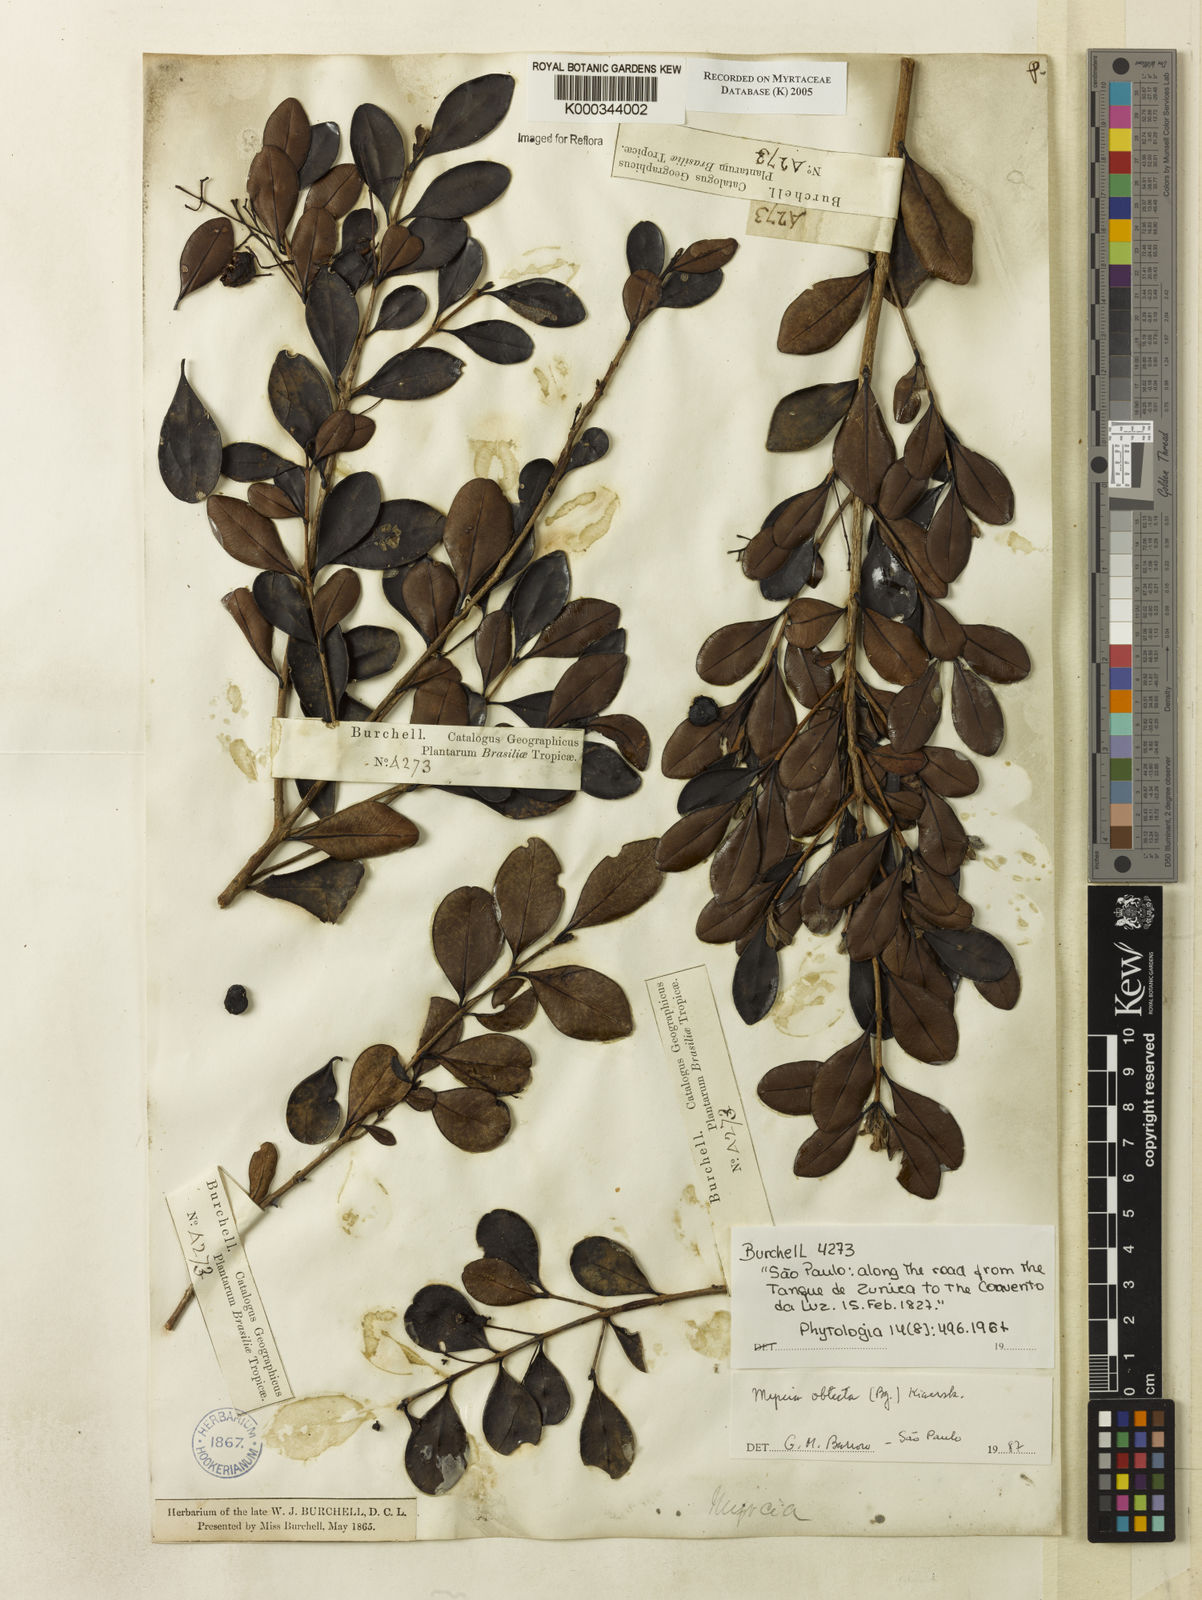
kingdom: Plantae
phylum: Tracheophyta
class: Magnoliopsida
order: Myrtales
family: Myrtaceae
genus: Myrcia
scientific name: Myrcia guianensis
